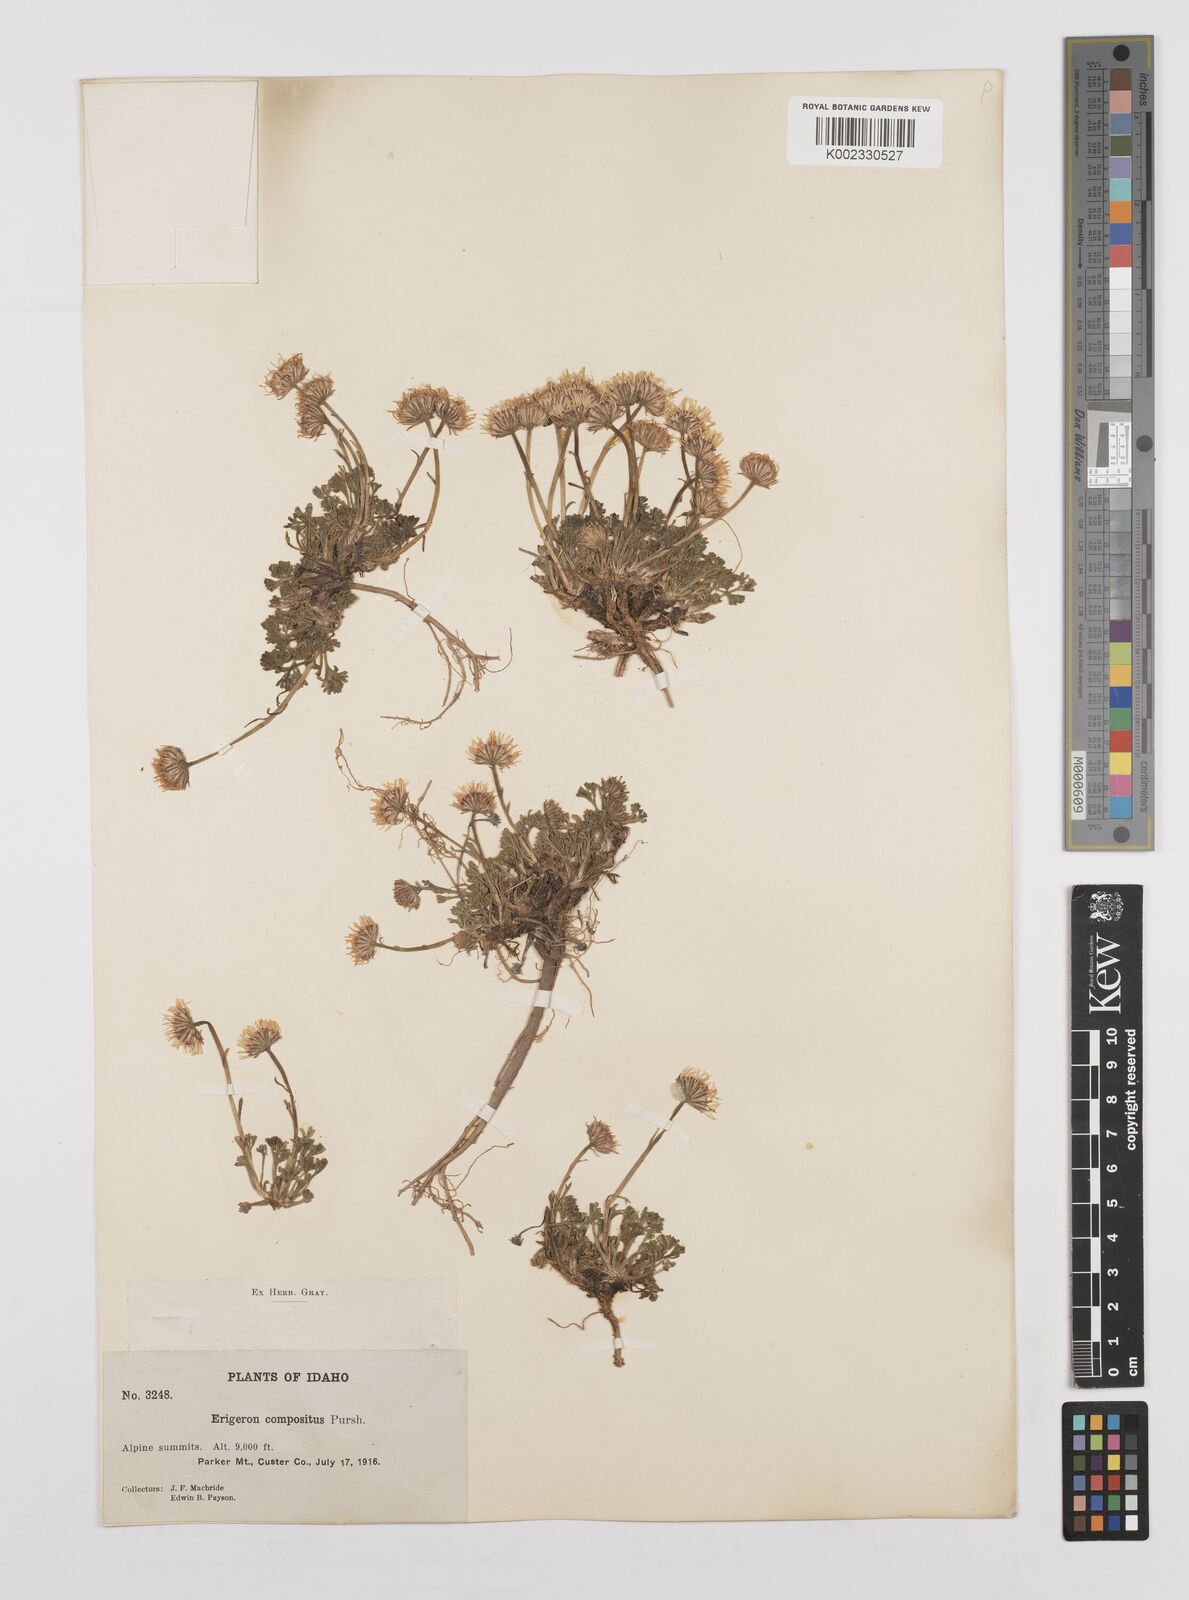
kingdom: Plantae
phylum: Tracheophyta
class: Magnoliopsida
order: Asterales
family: Asteraceae
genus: Erigeron
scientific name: Erigeron compositus
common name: Dwarf mountain fleabane
